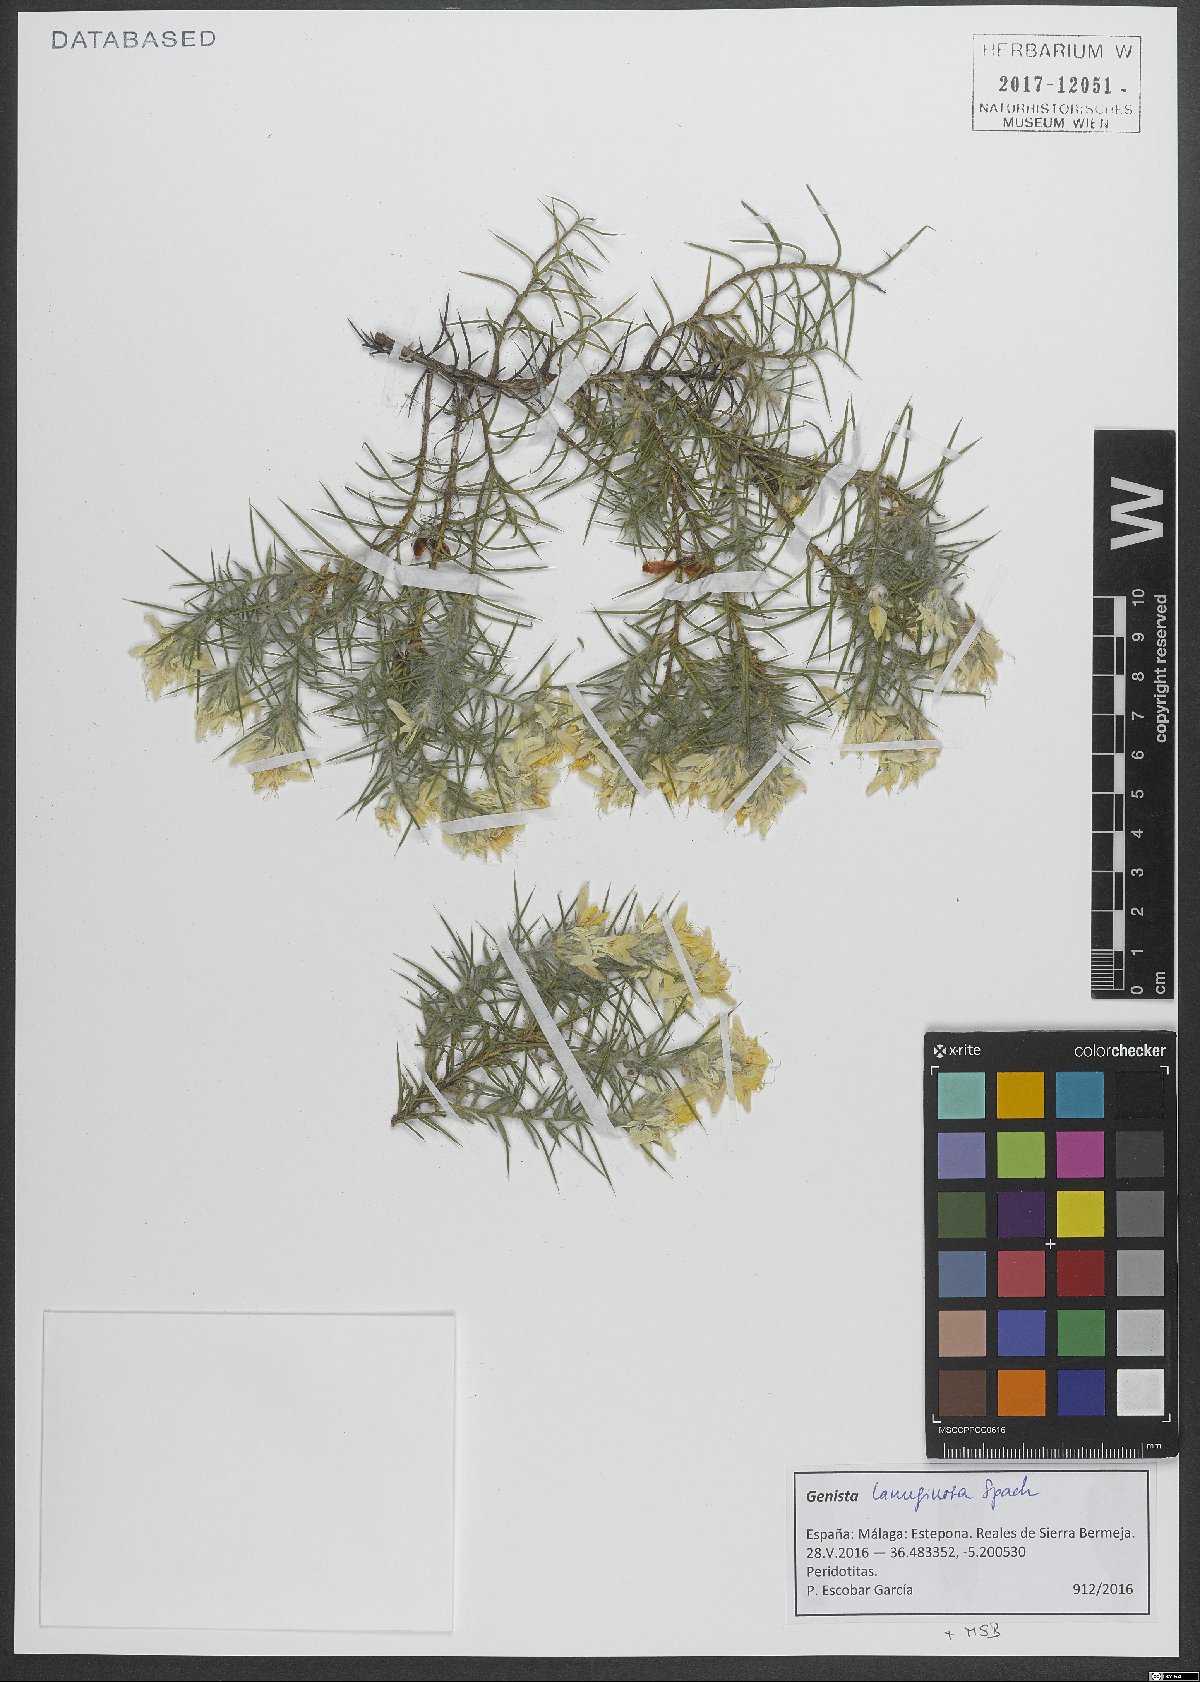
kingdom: Plantae
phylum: Tracheophyta
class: Magnoliopsida
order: Fabales
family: Fabaceae
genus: Genista
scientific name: Genista hirsuta
